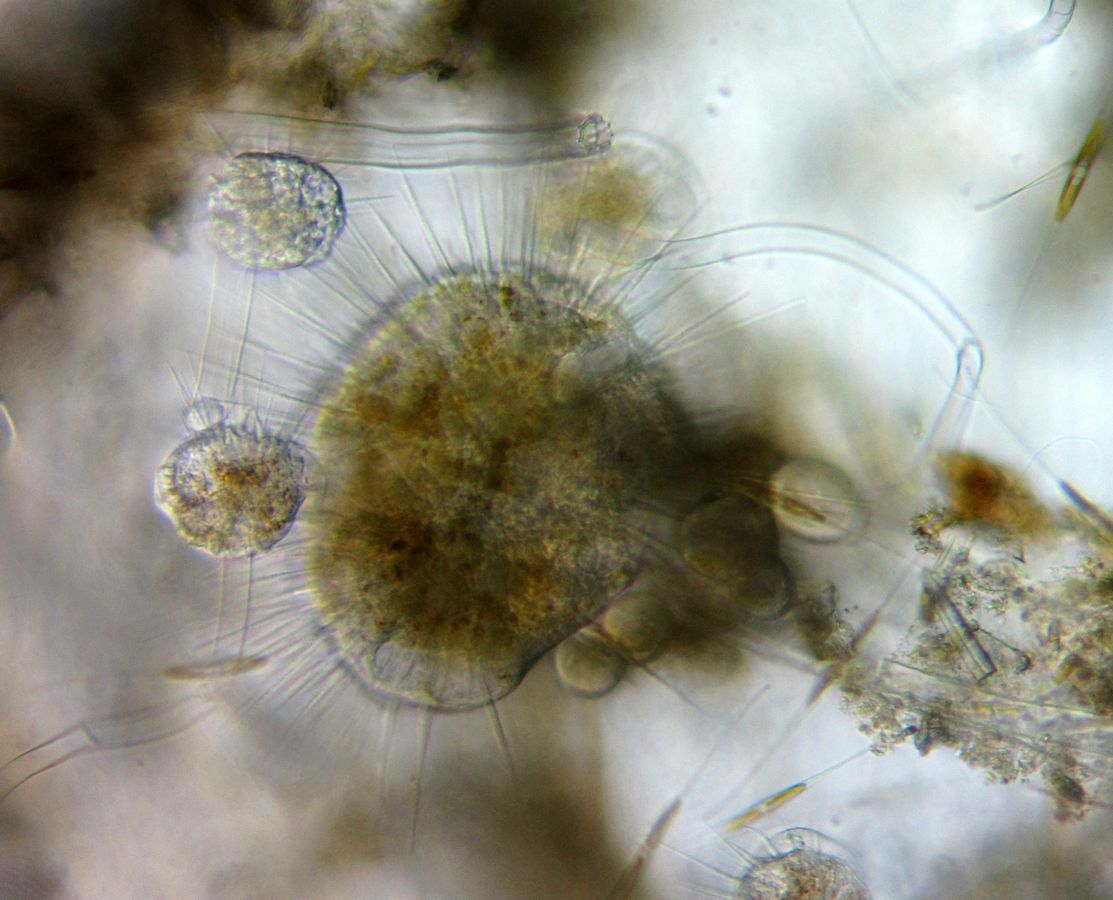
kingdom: Chromista
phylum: Ciliophora
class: Phyllopharyngea
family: Ephelotidae
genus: Ephelota
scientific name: Ephelota truncata
